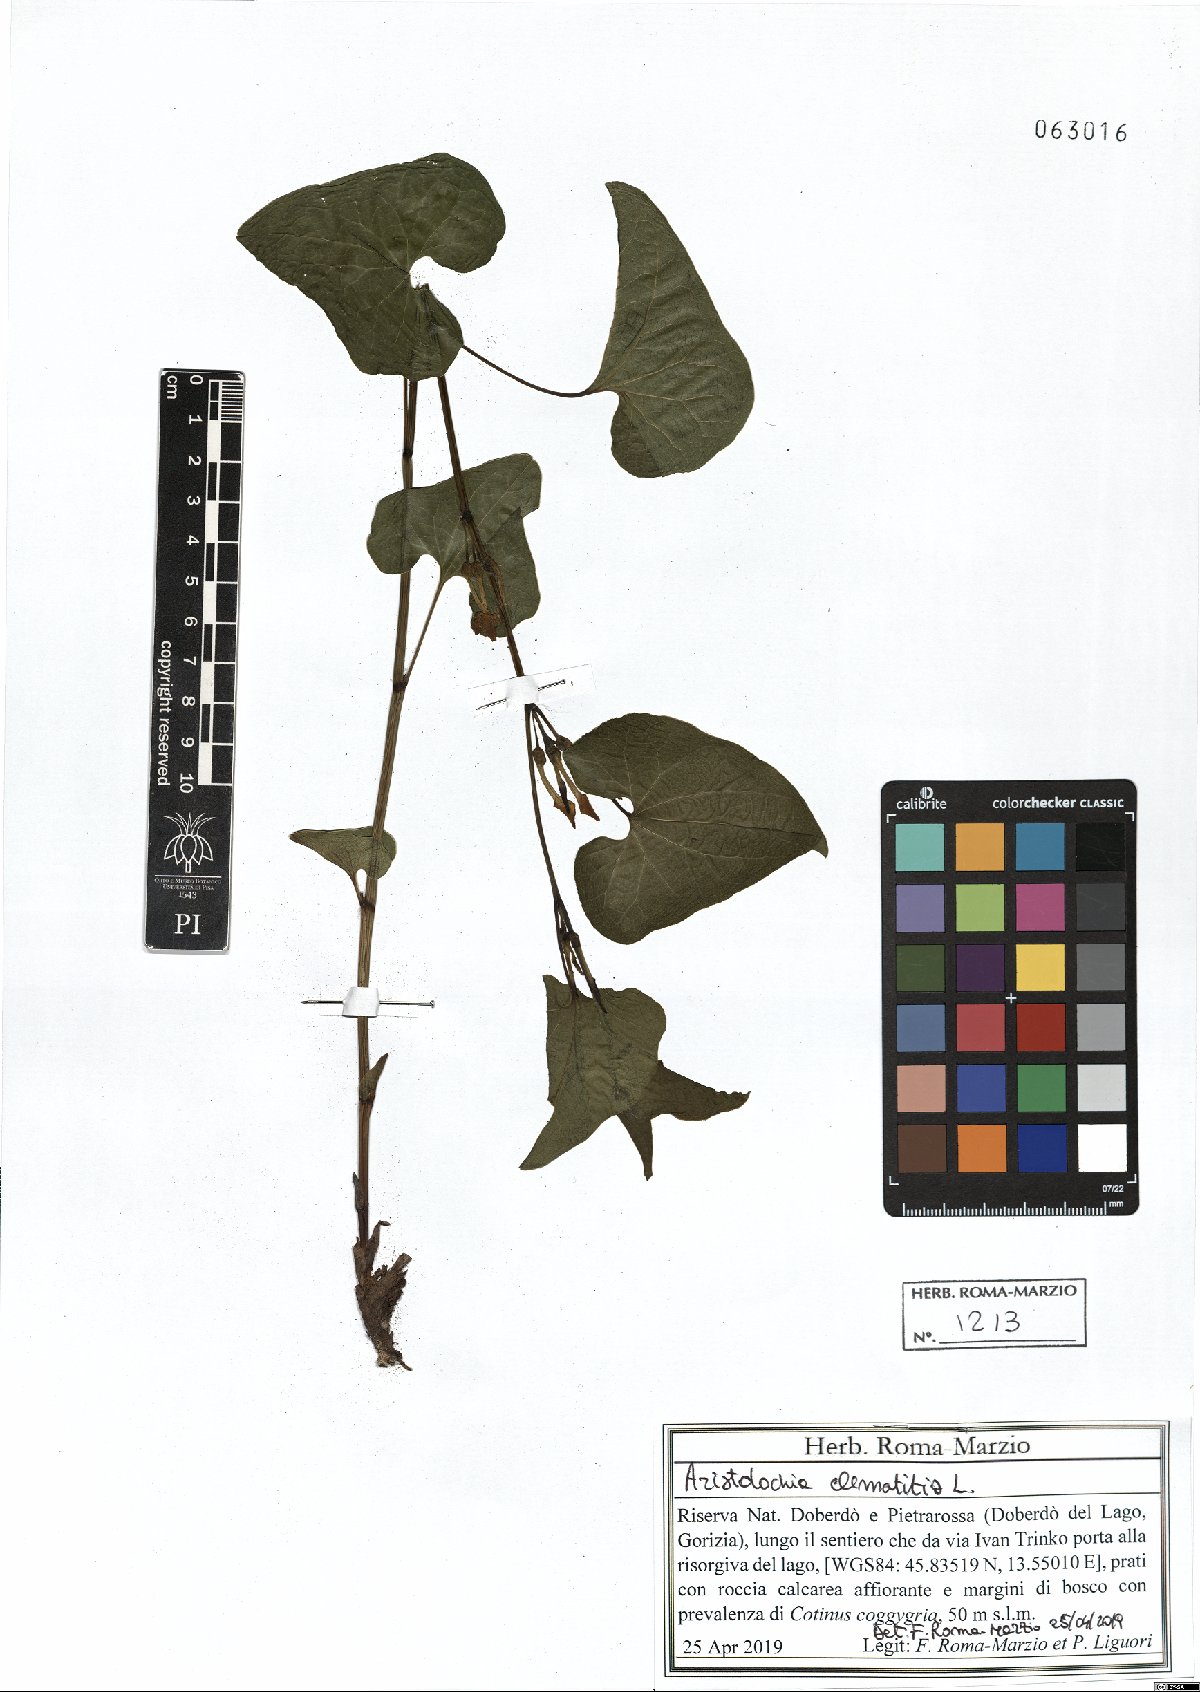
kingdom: Plantae
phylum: Tracheophyta
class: Magnoliopsida
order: Piperales
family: Aristolochiaceae
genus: Aristolochia
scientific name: Aristolochia clematitis
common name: Birthwort
